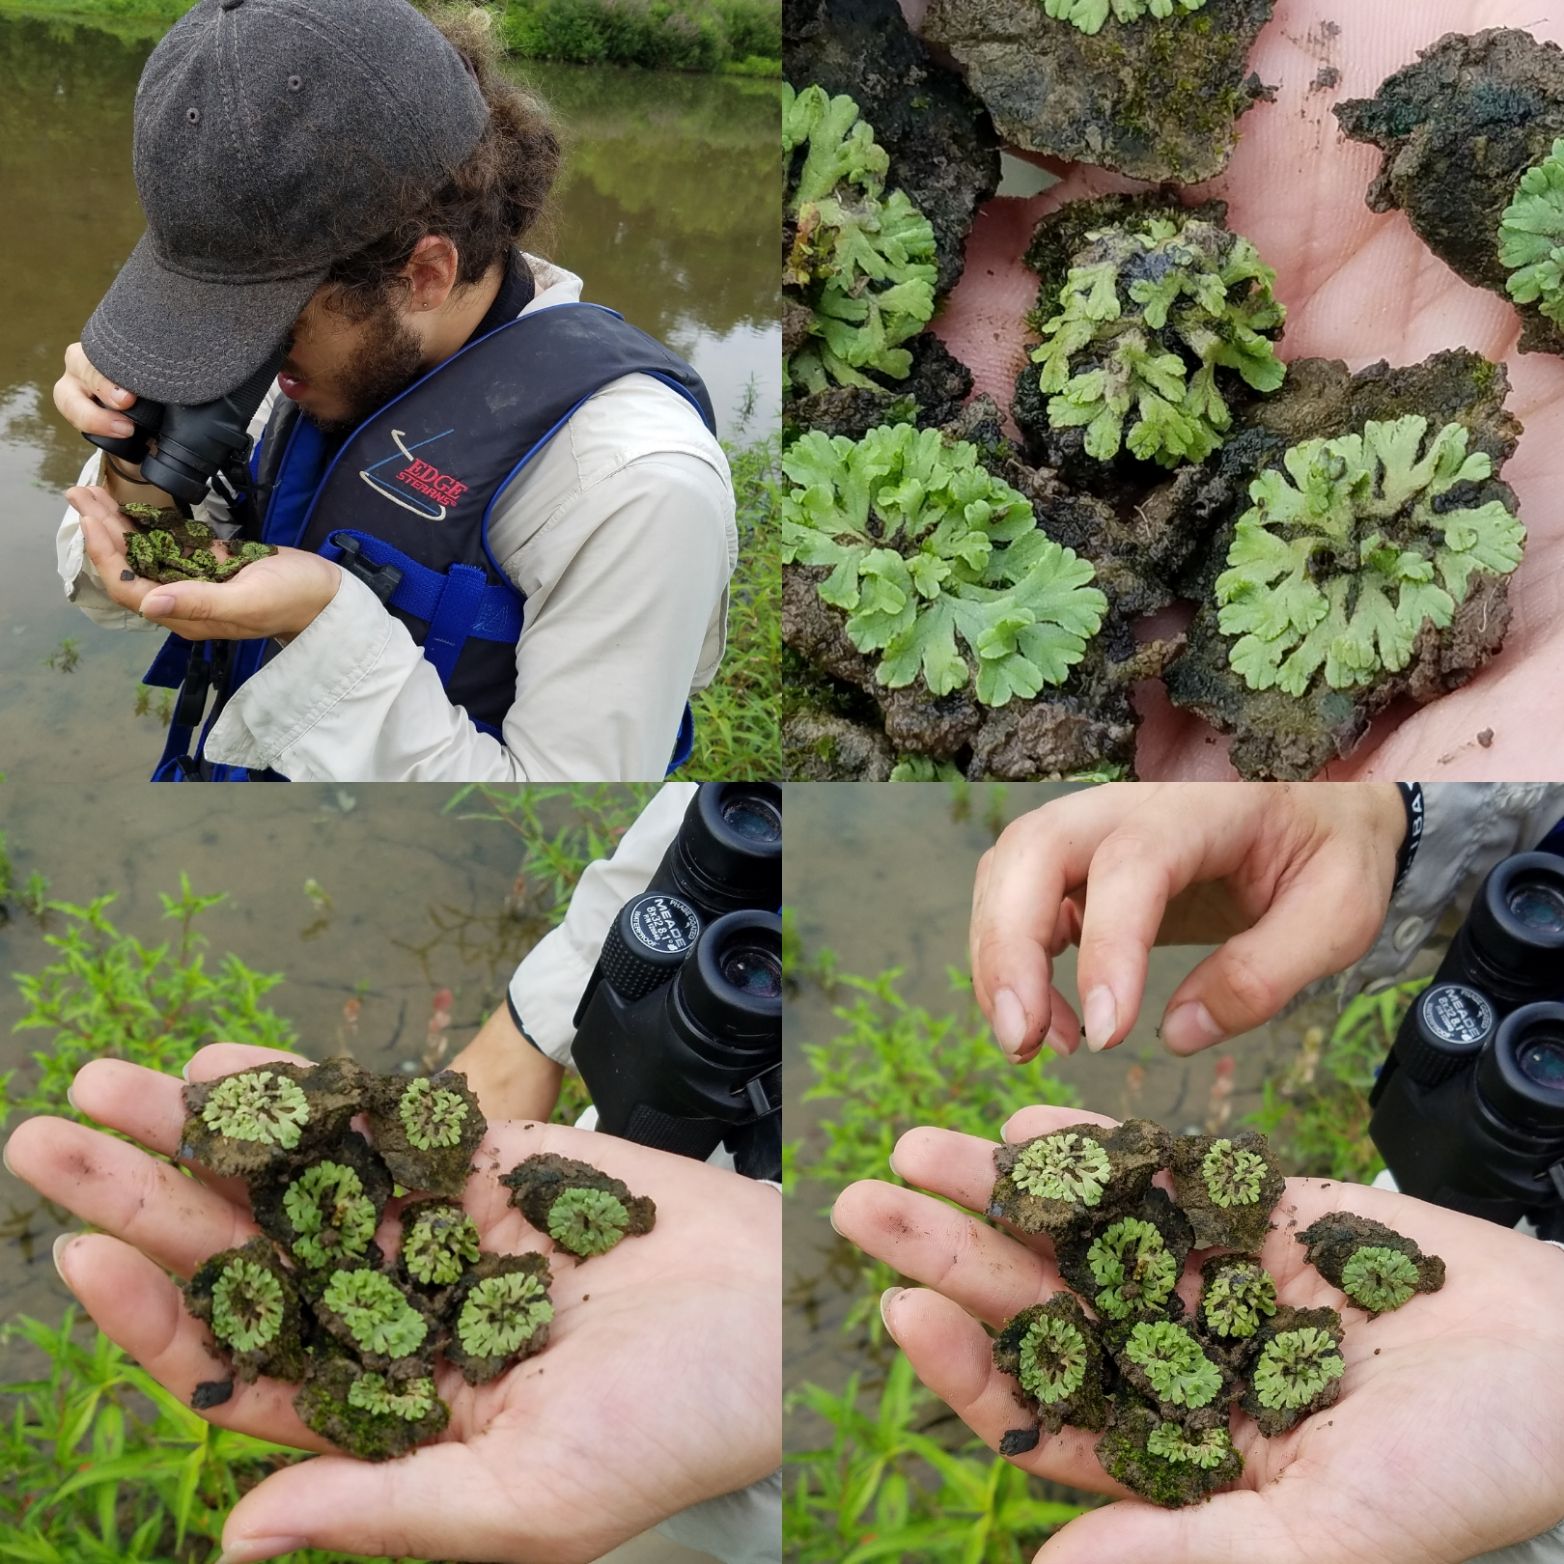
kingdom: Plantae
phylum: Marchantiophyta
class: Marchantiopsida
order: Marchantiales
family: Ricciaceae
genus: Riccia
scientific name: Riccia glauca
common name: Liverwort
